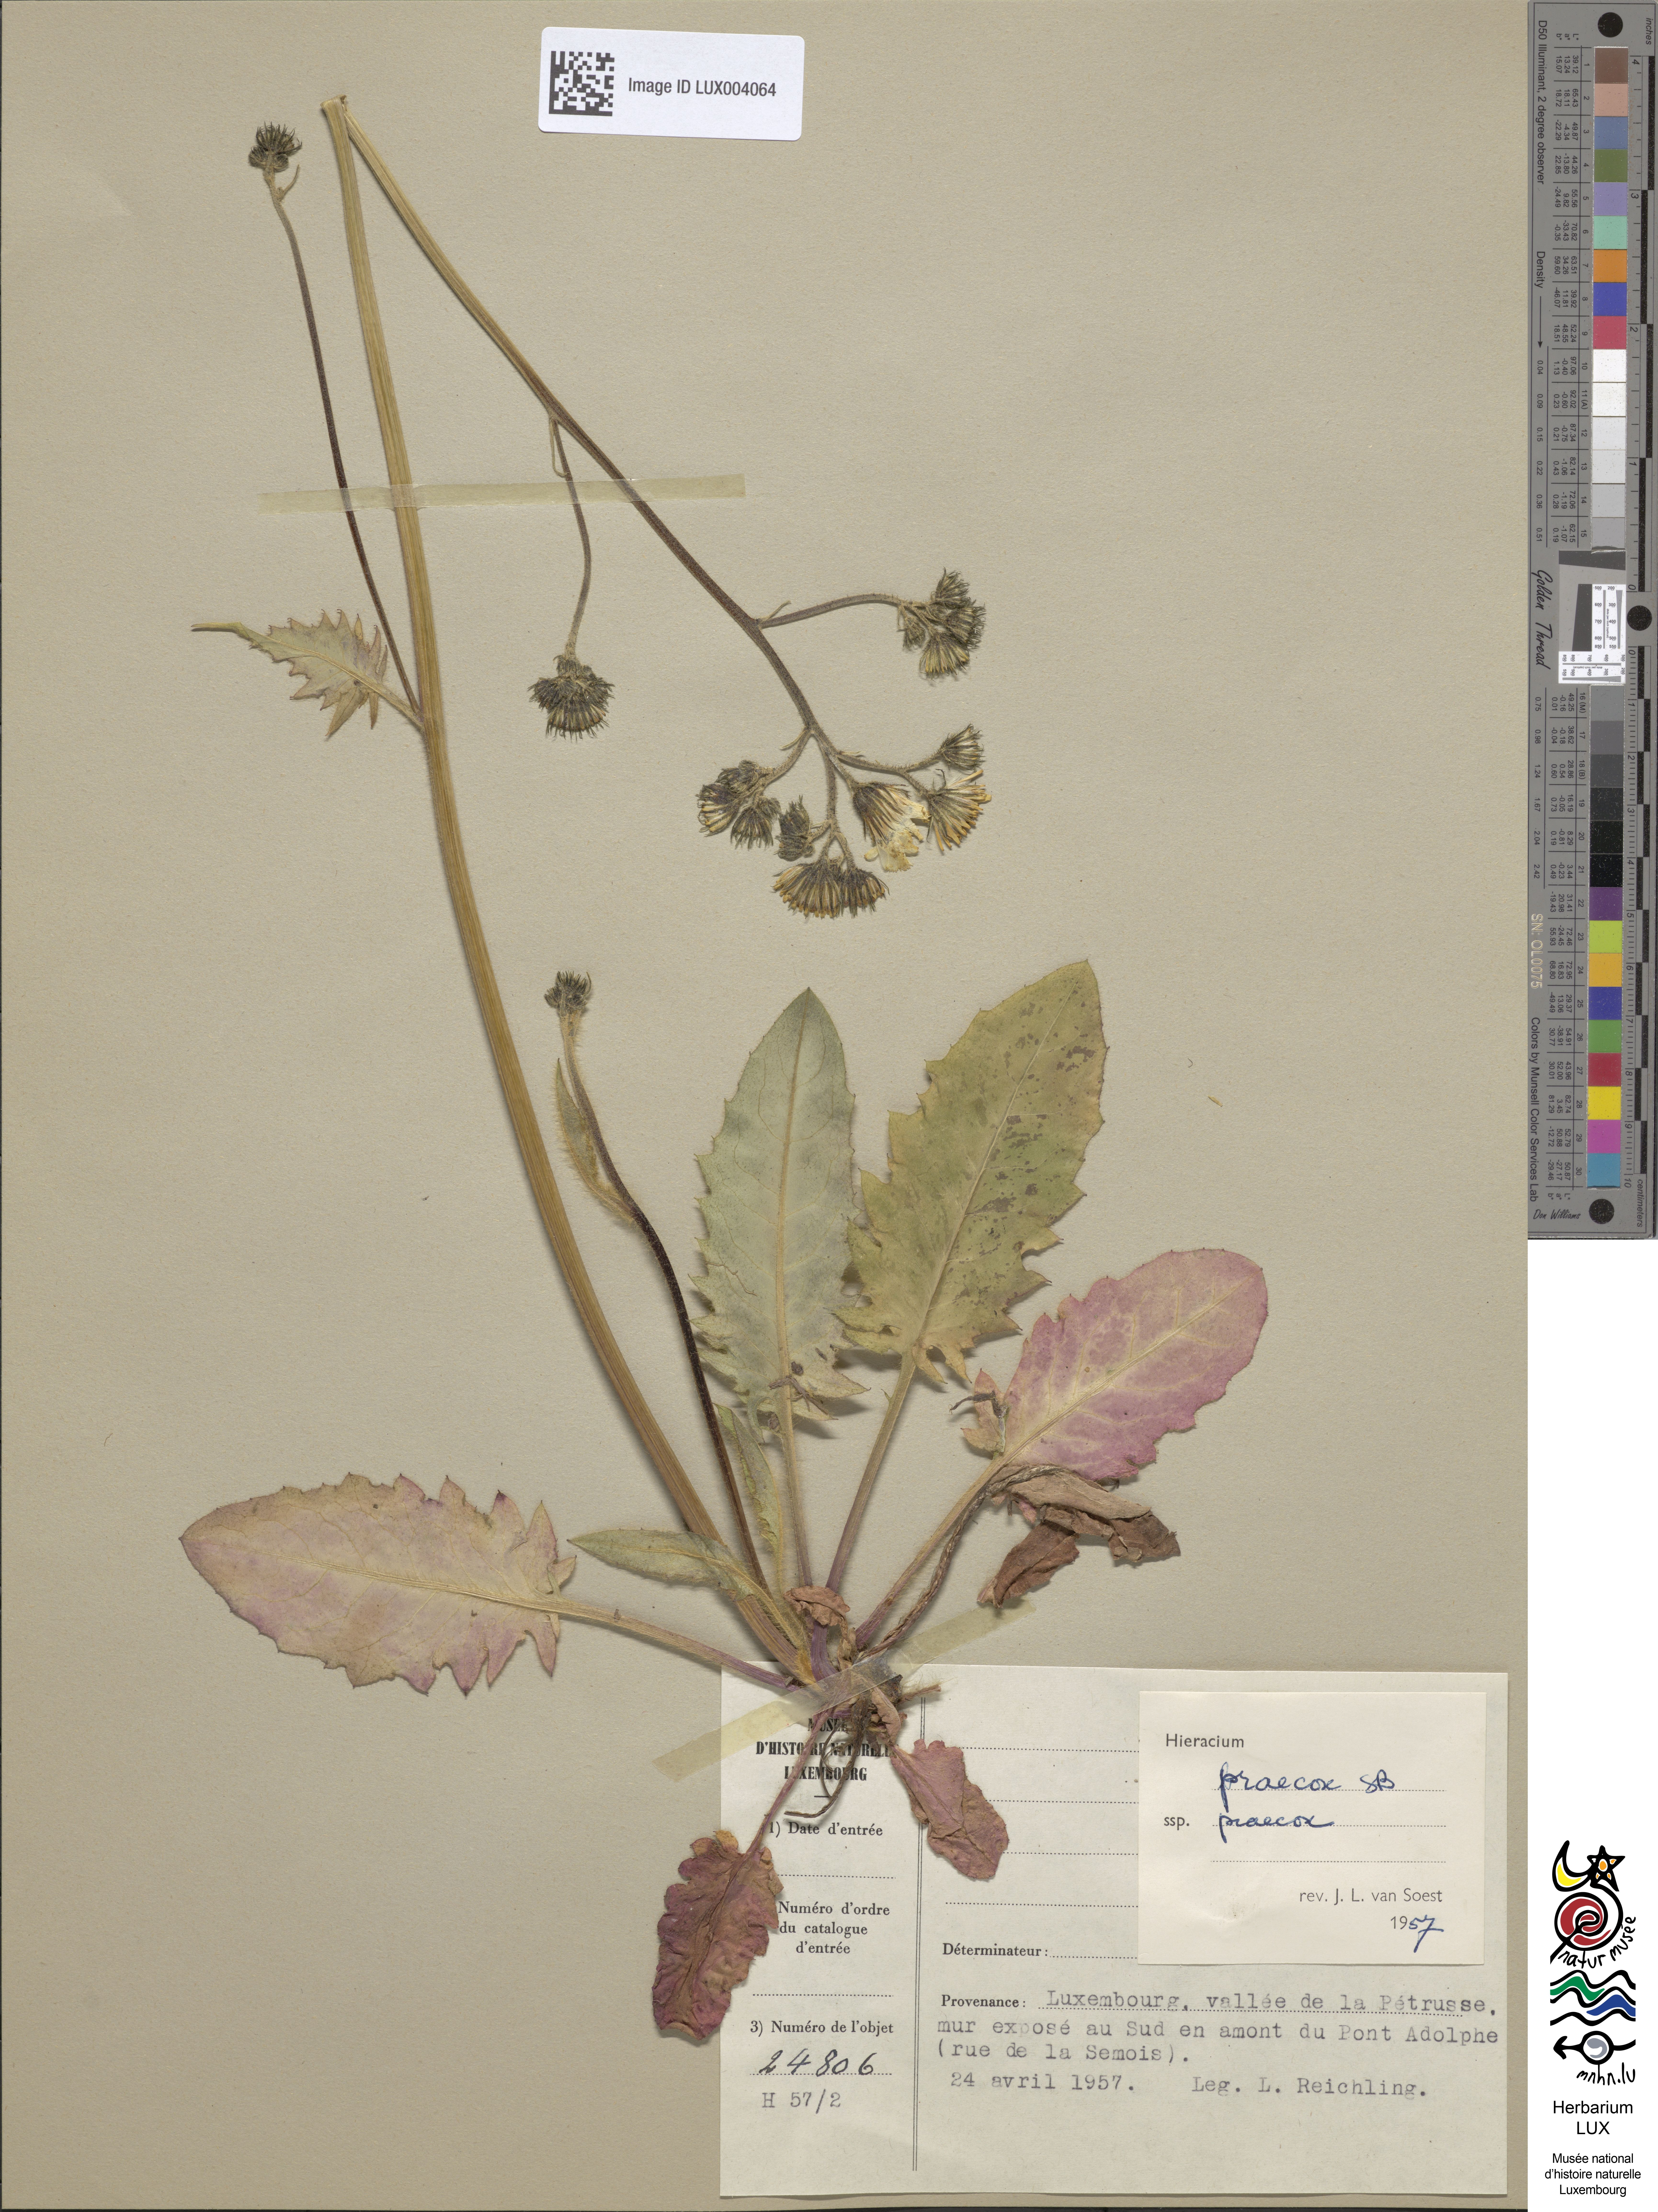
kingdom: Plantae
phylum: Tracheophyta
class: Magnoliopsida
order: Asterales
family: Asteraceae
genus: Hieracium
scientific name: Hieracium glaucinum
